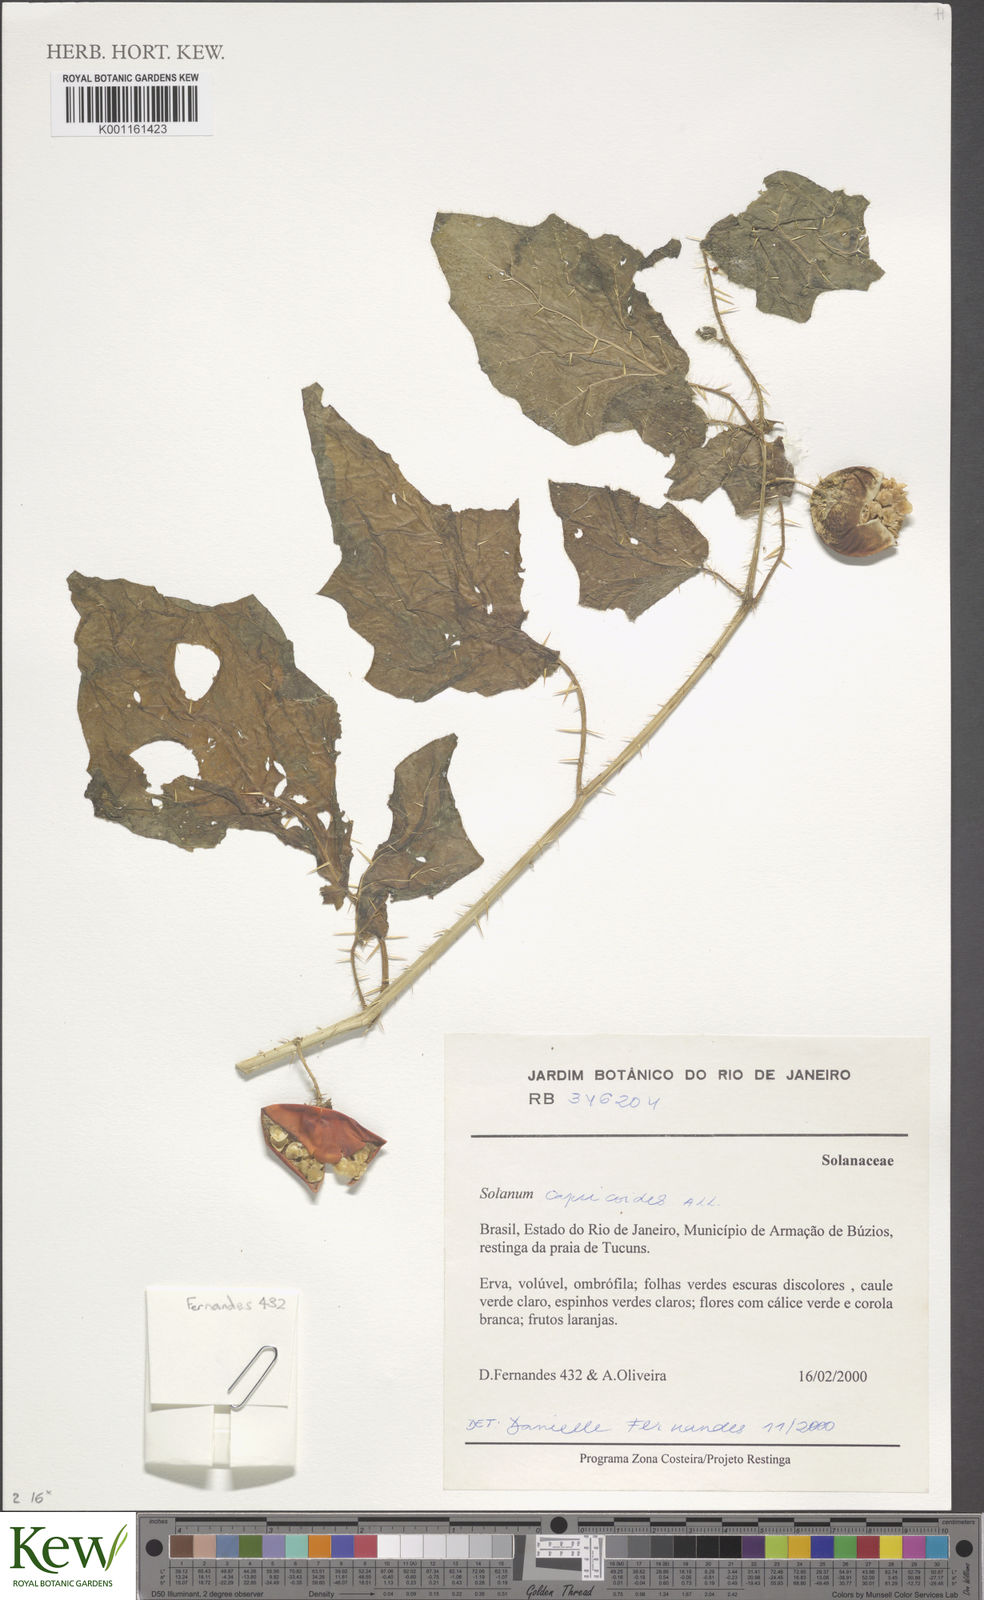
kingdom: Plantae
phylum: Tracheophyta
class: Magnoliopsida
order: Solanales
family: Solanaceae
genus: Solanum
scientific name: Solanum capsicoides
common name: Cockroach berry
